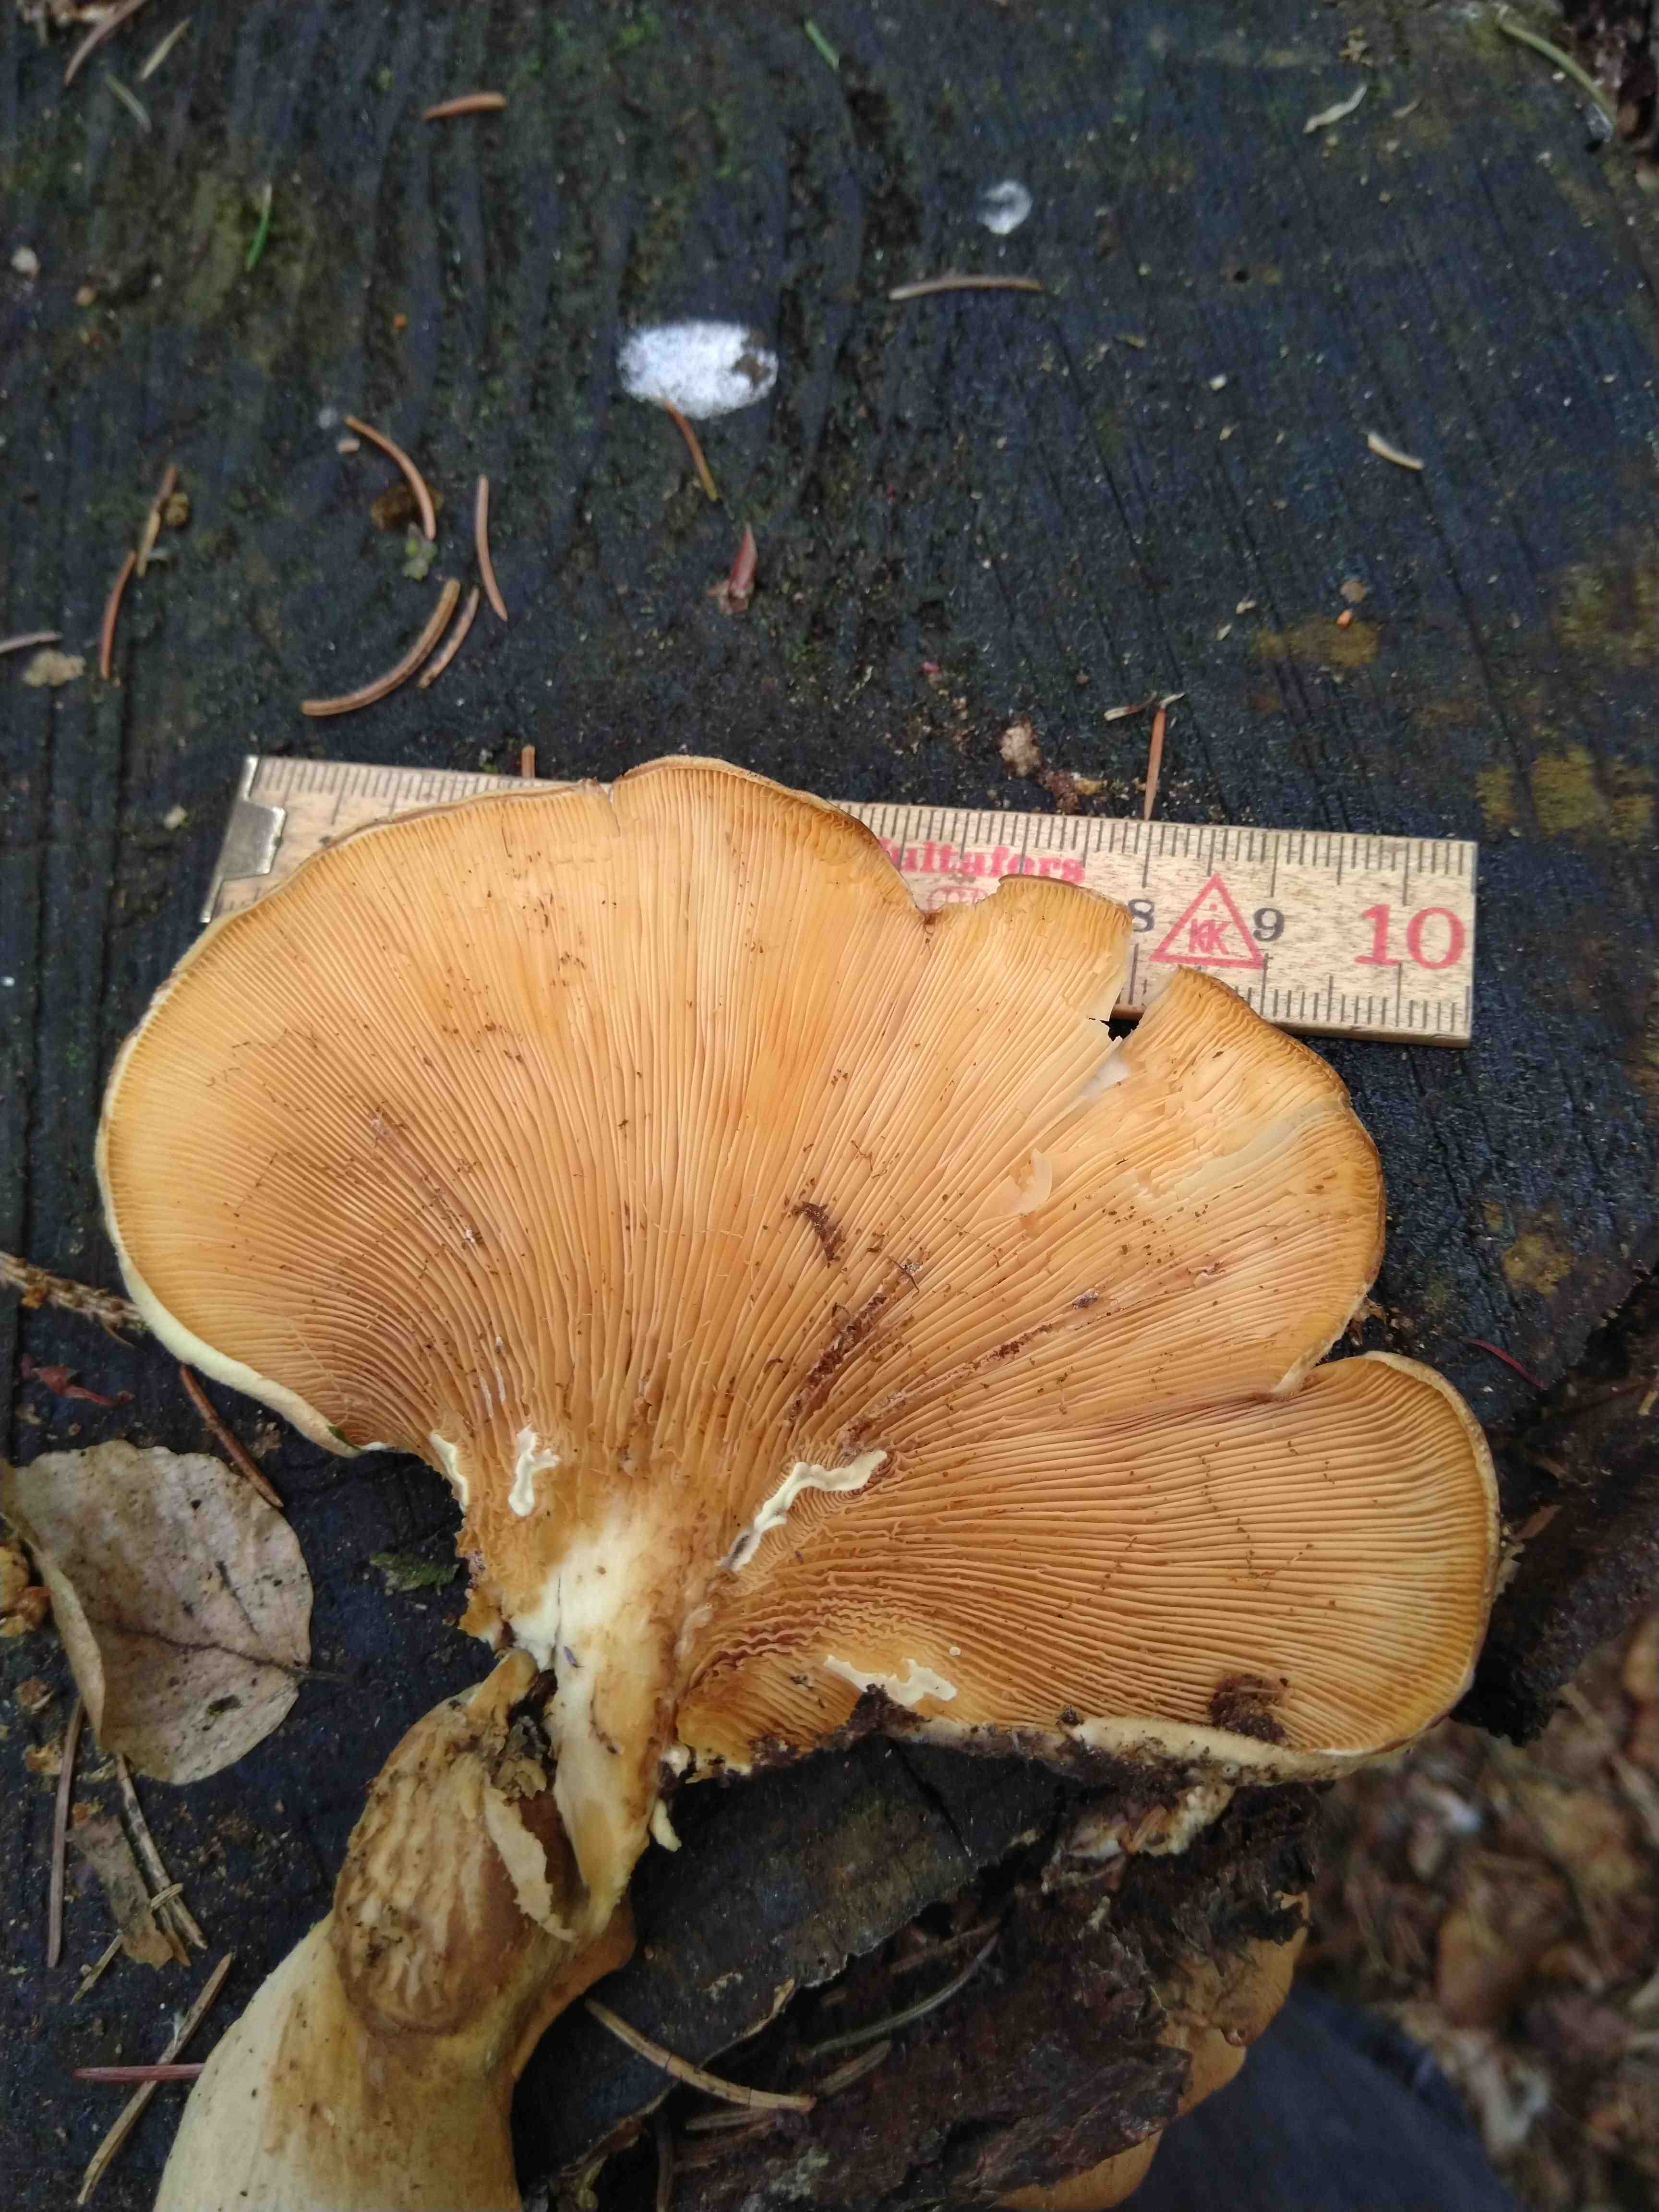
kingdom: Fungi
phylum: Basidiomycota
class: Agaricomycetes
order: Boletales
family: Tapinellaceae
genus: Tapinella
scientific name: Tapinella panuoides
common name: tømmer-viftesvamp
